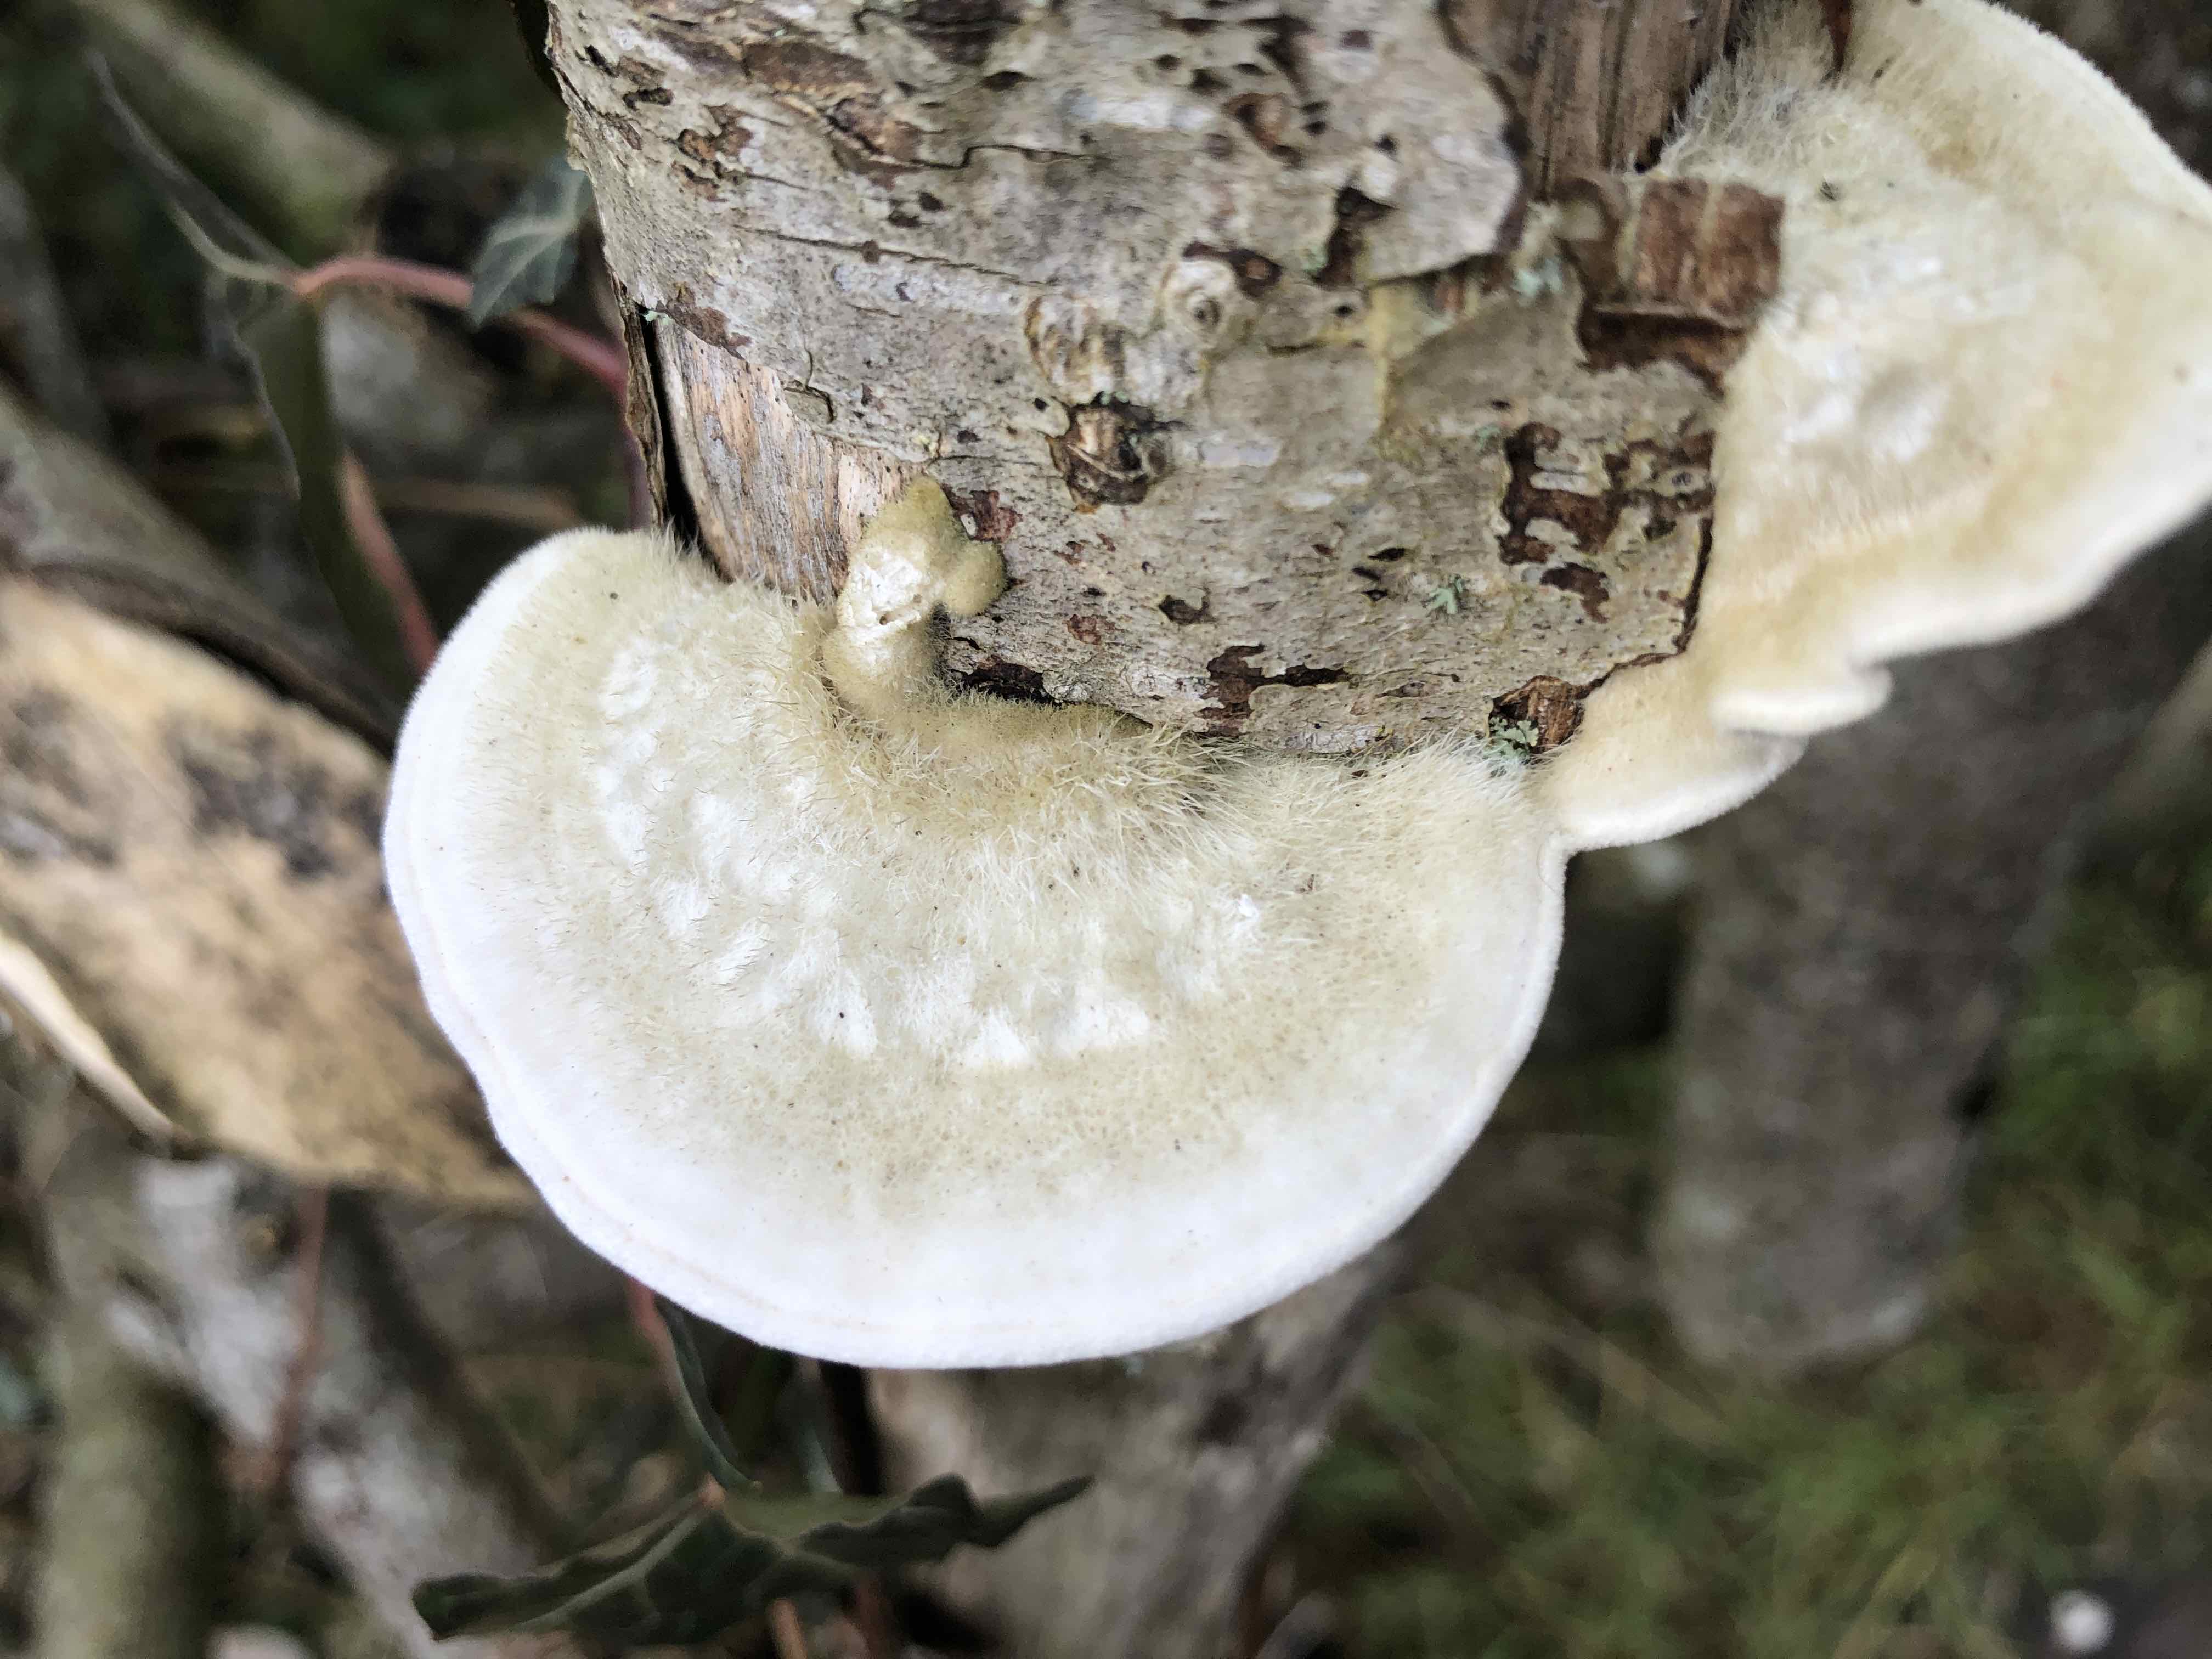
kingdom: Fungi
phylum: Basidiomycota
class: Agaricomycetes
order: Polyporales
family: Polyporaceae
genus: Trametes
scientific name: Trametes hirsuta
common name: håret læderporesvamp
